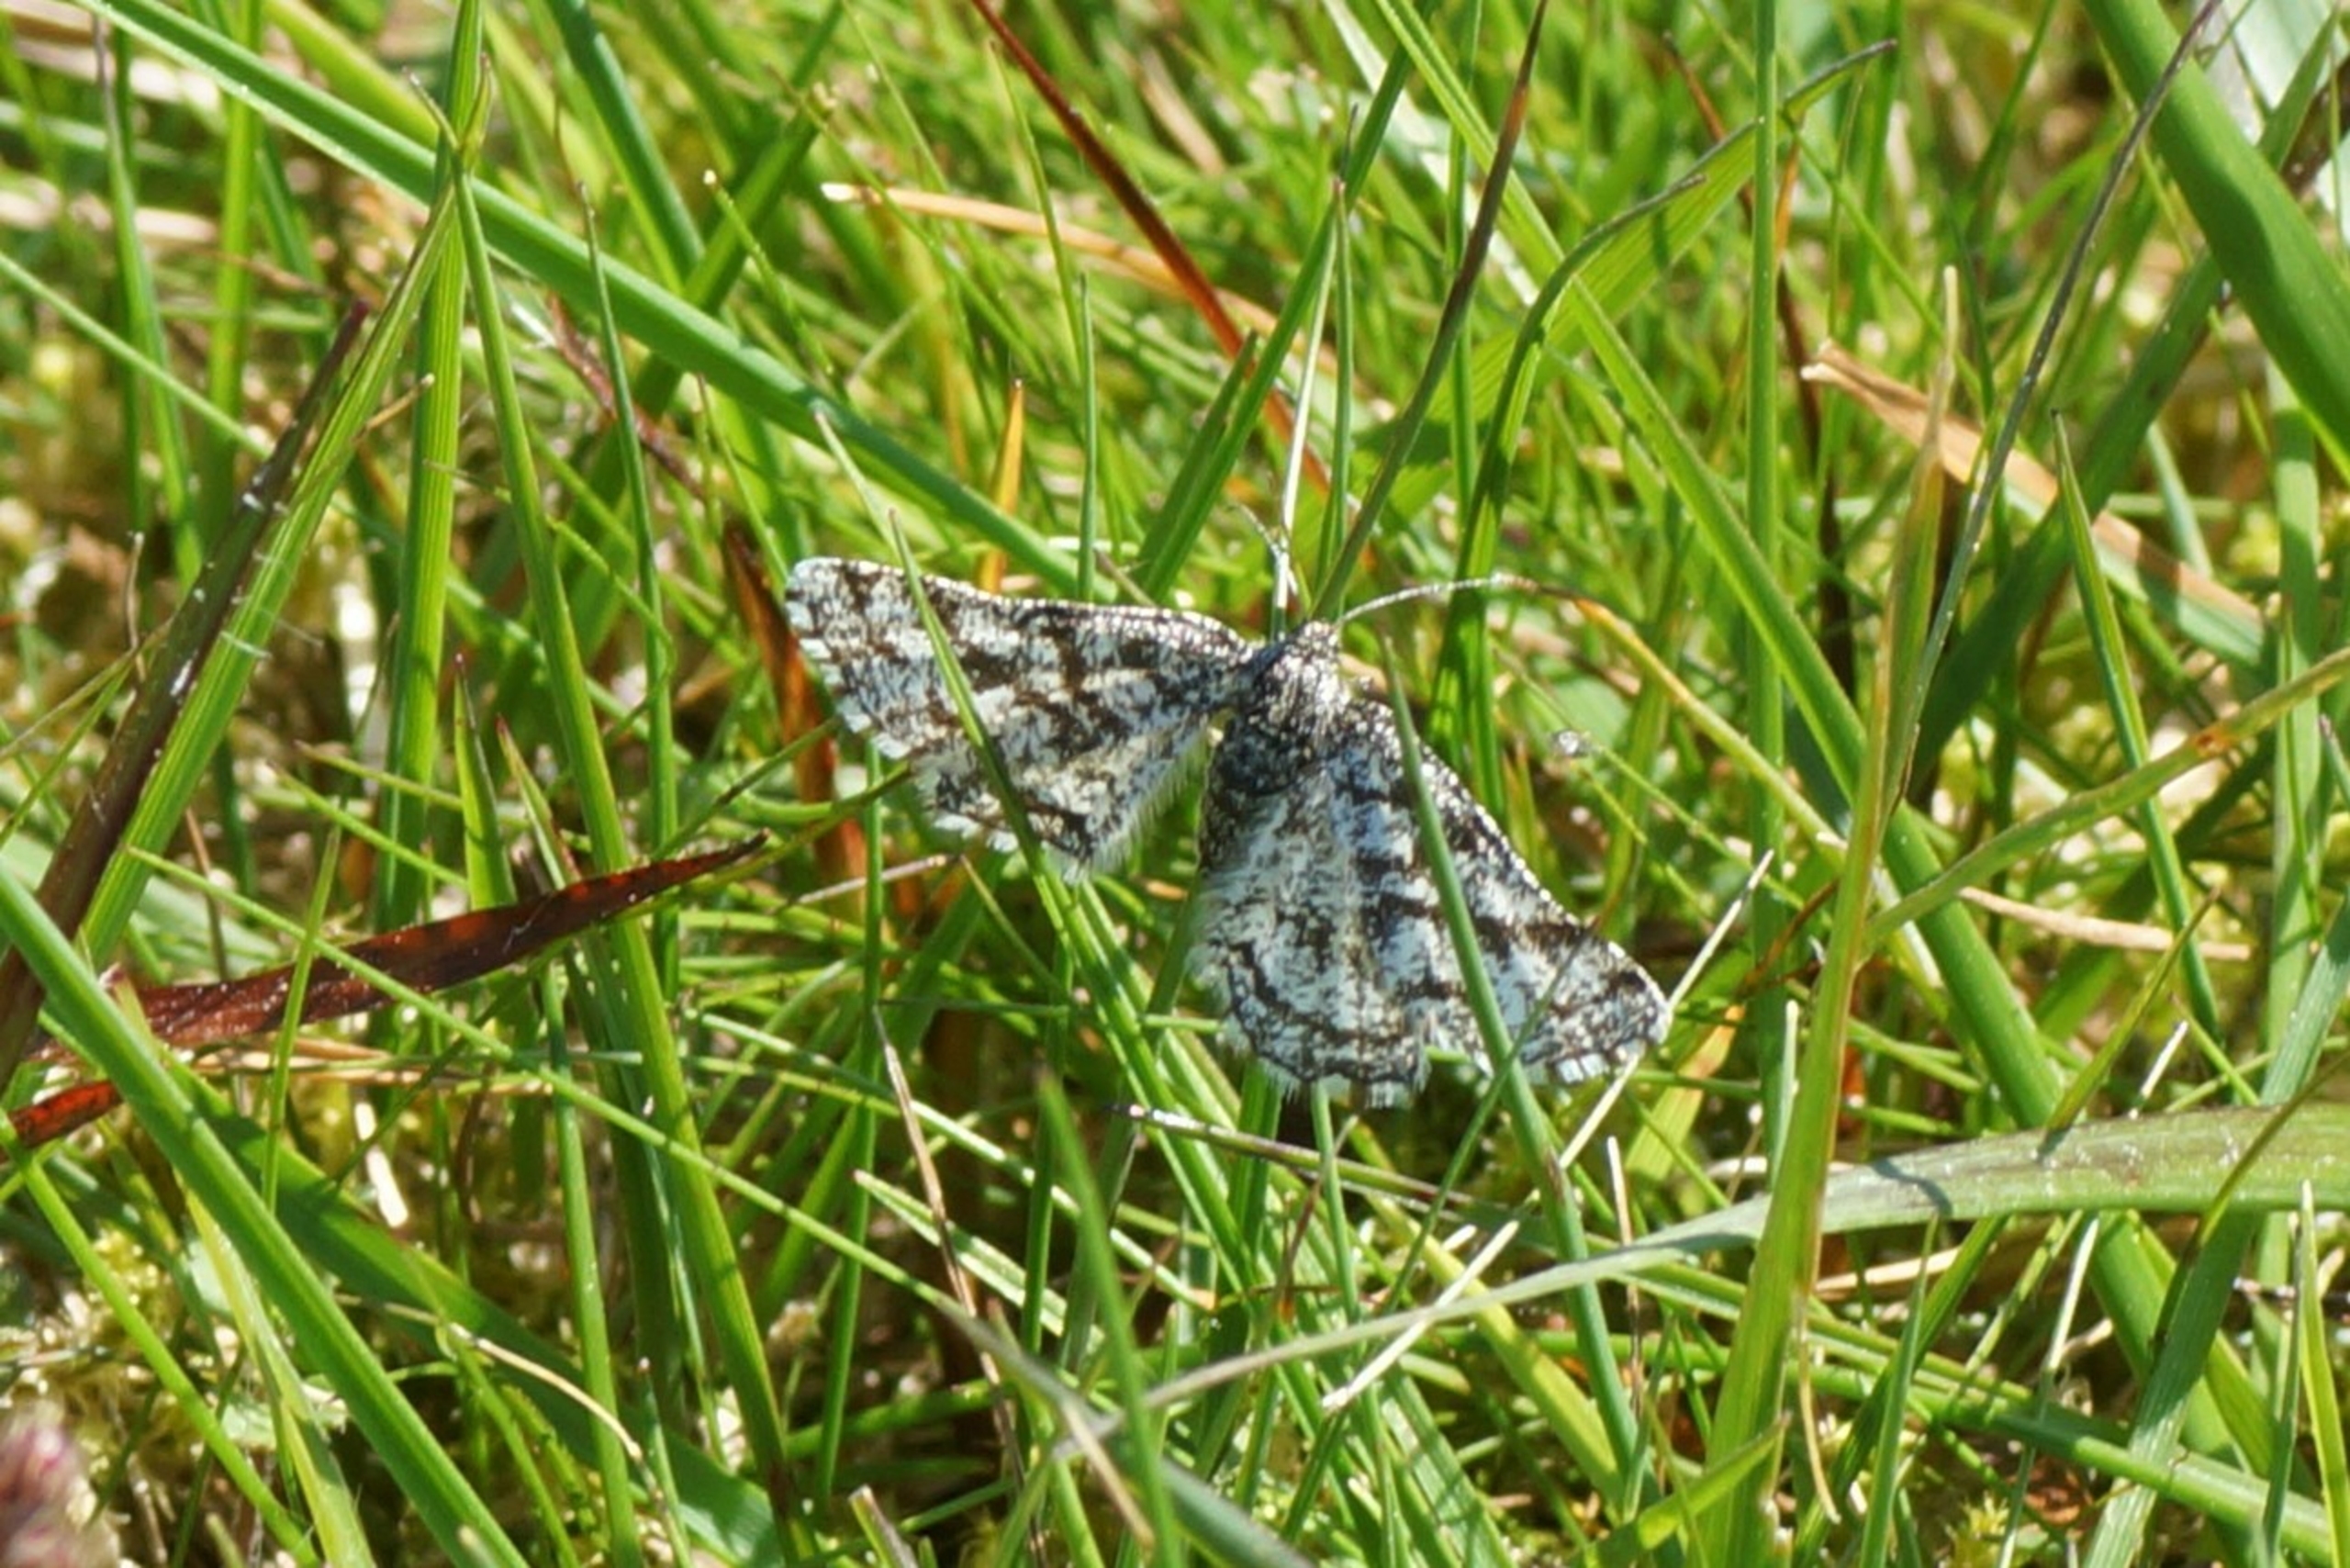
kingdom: Animalia
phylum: Arthropoda
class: Insecta
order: Lepidoptera
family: Geometridae
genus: Ematurga
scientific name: Ematurga atomaria
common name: Lyngmåler
